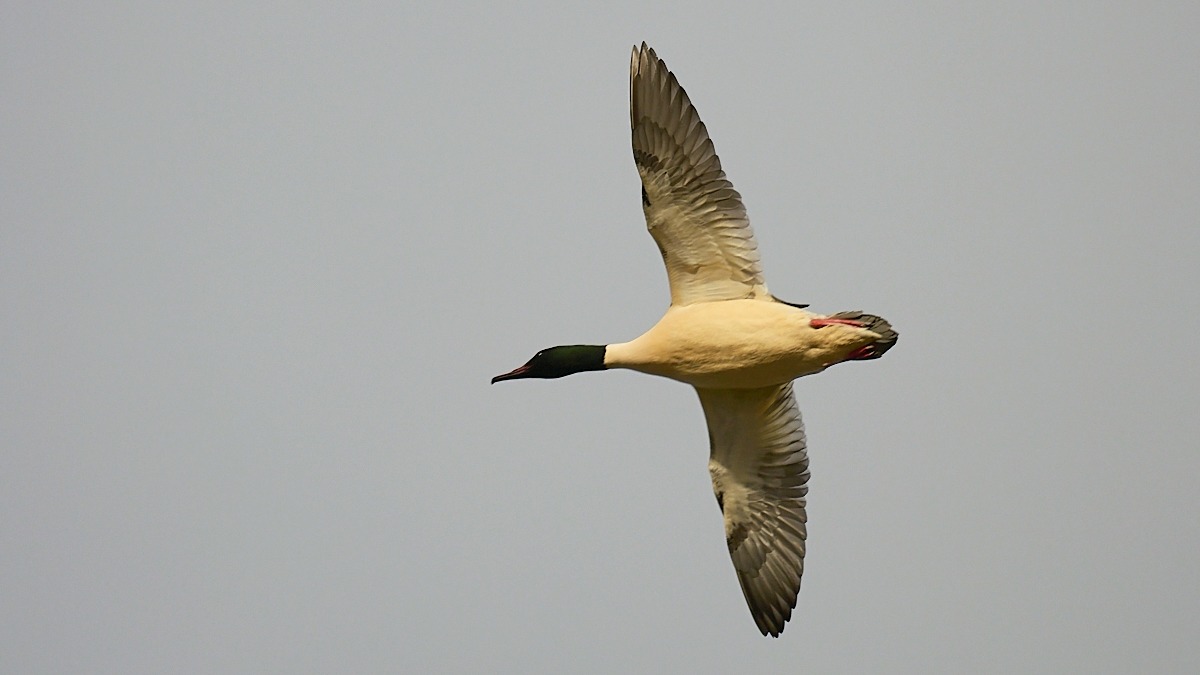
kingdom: Animalia
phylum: Chordata
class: Aves
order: Anseriformes
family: Anatidae
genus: Mergus
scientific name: Mergus merganser
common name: Stor skallesluger
